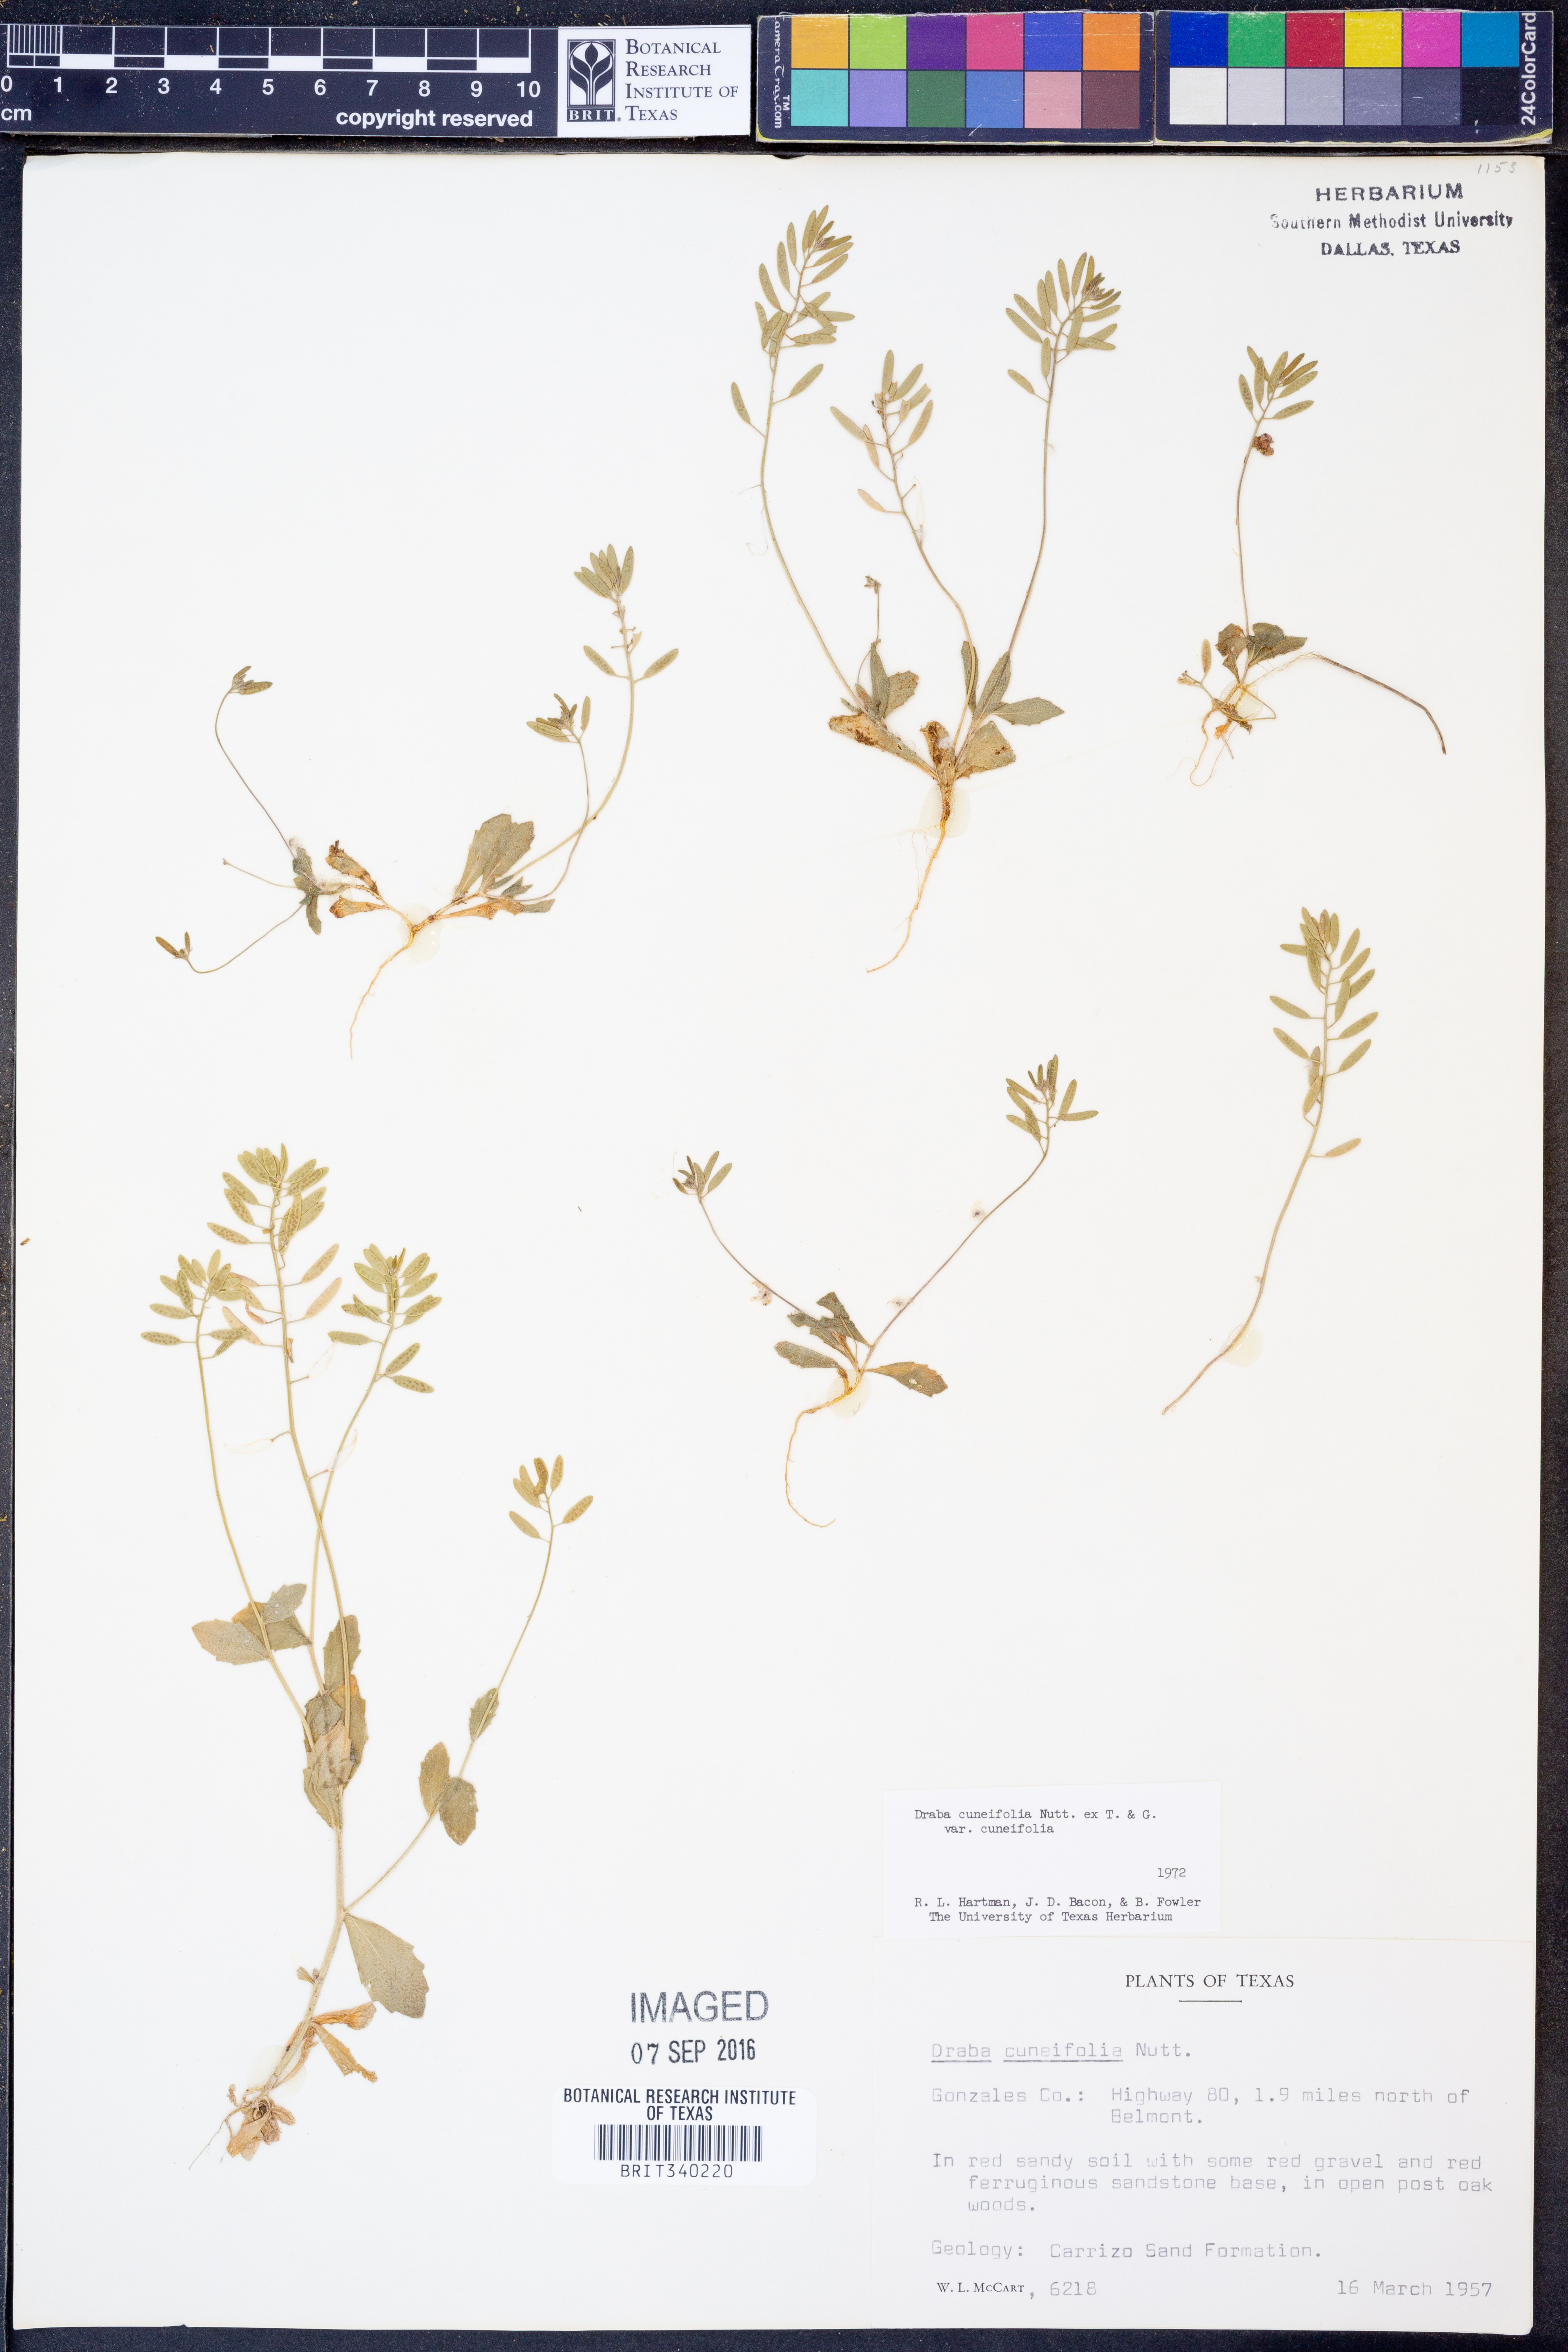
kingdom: Plantae
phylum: Tracheophyta
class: Magnoliopsida
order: Brassicales
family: Brassicaceae
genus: Tomostima
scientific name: Tomostima cuneifolia
